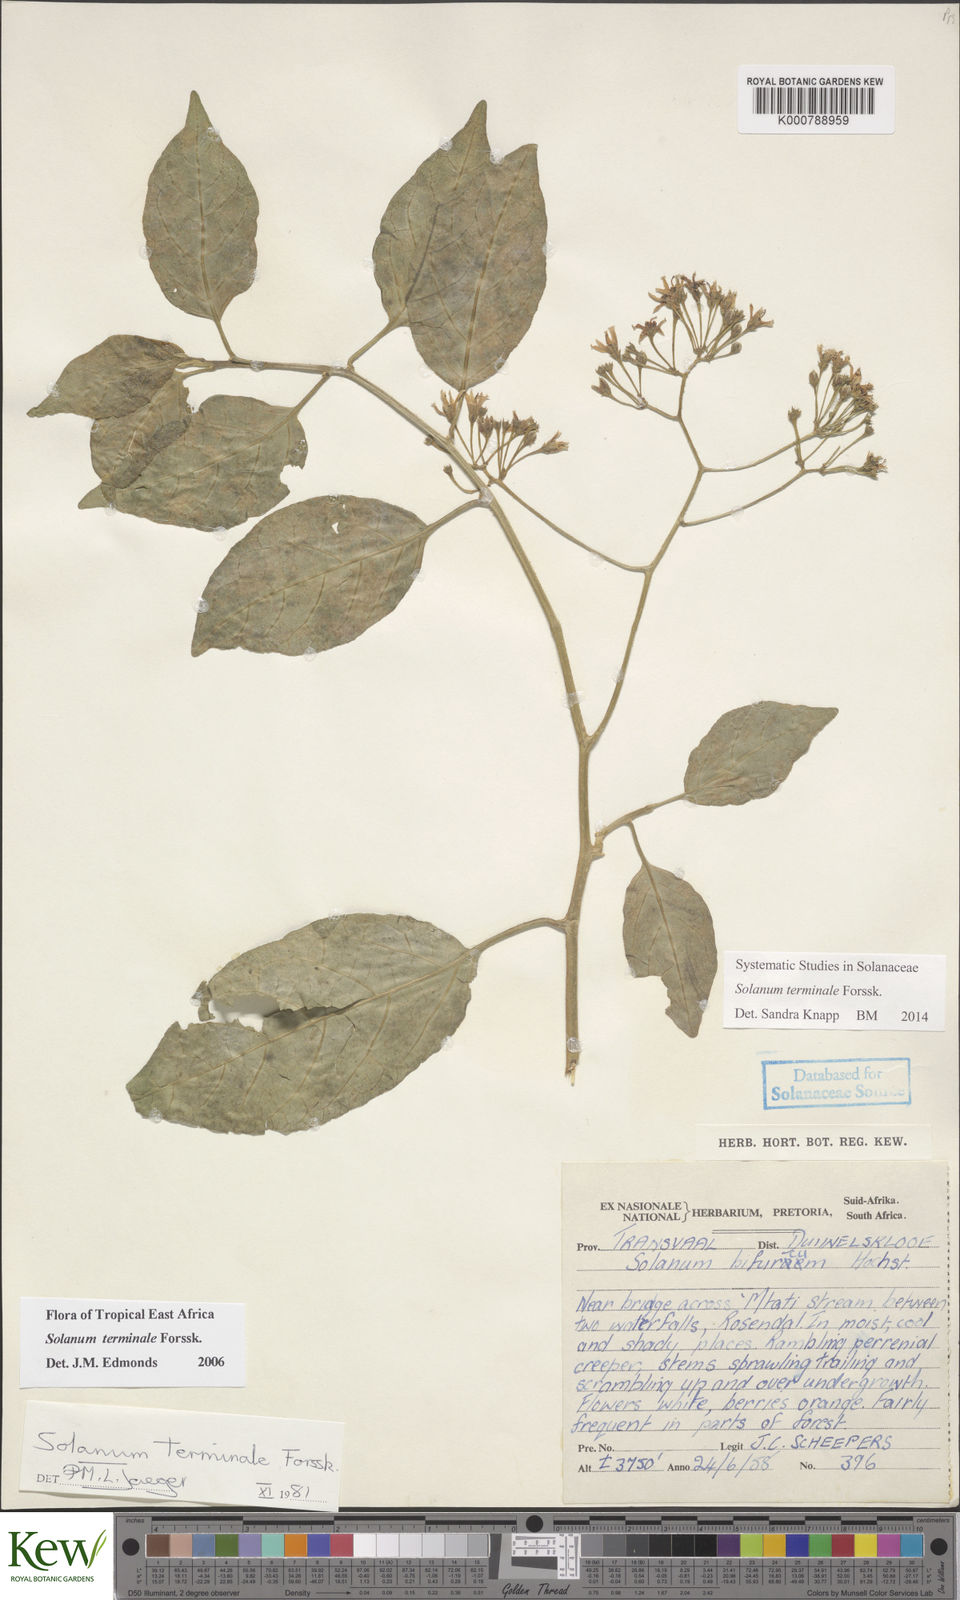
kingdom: Plantae
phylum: Tracheophyta
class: Magnoliopsida
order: Solanales
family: Solanaceae
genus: Solanum
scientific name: Solanum terminale
